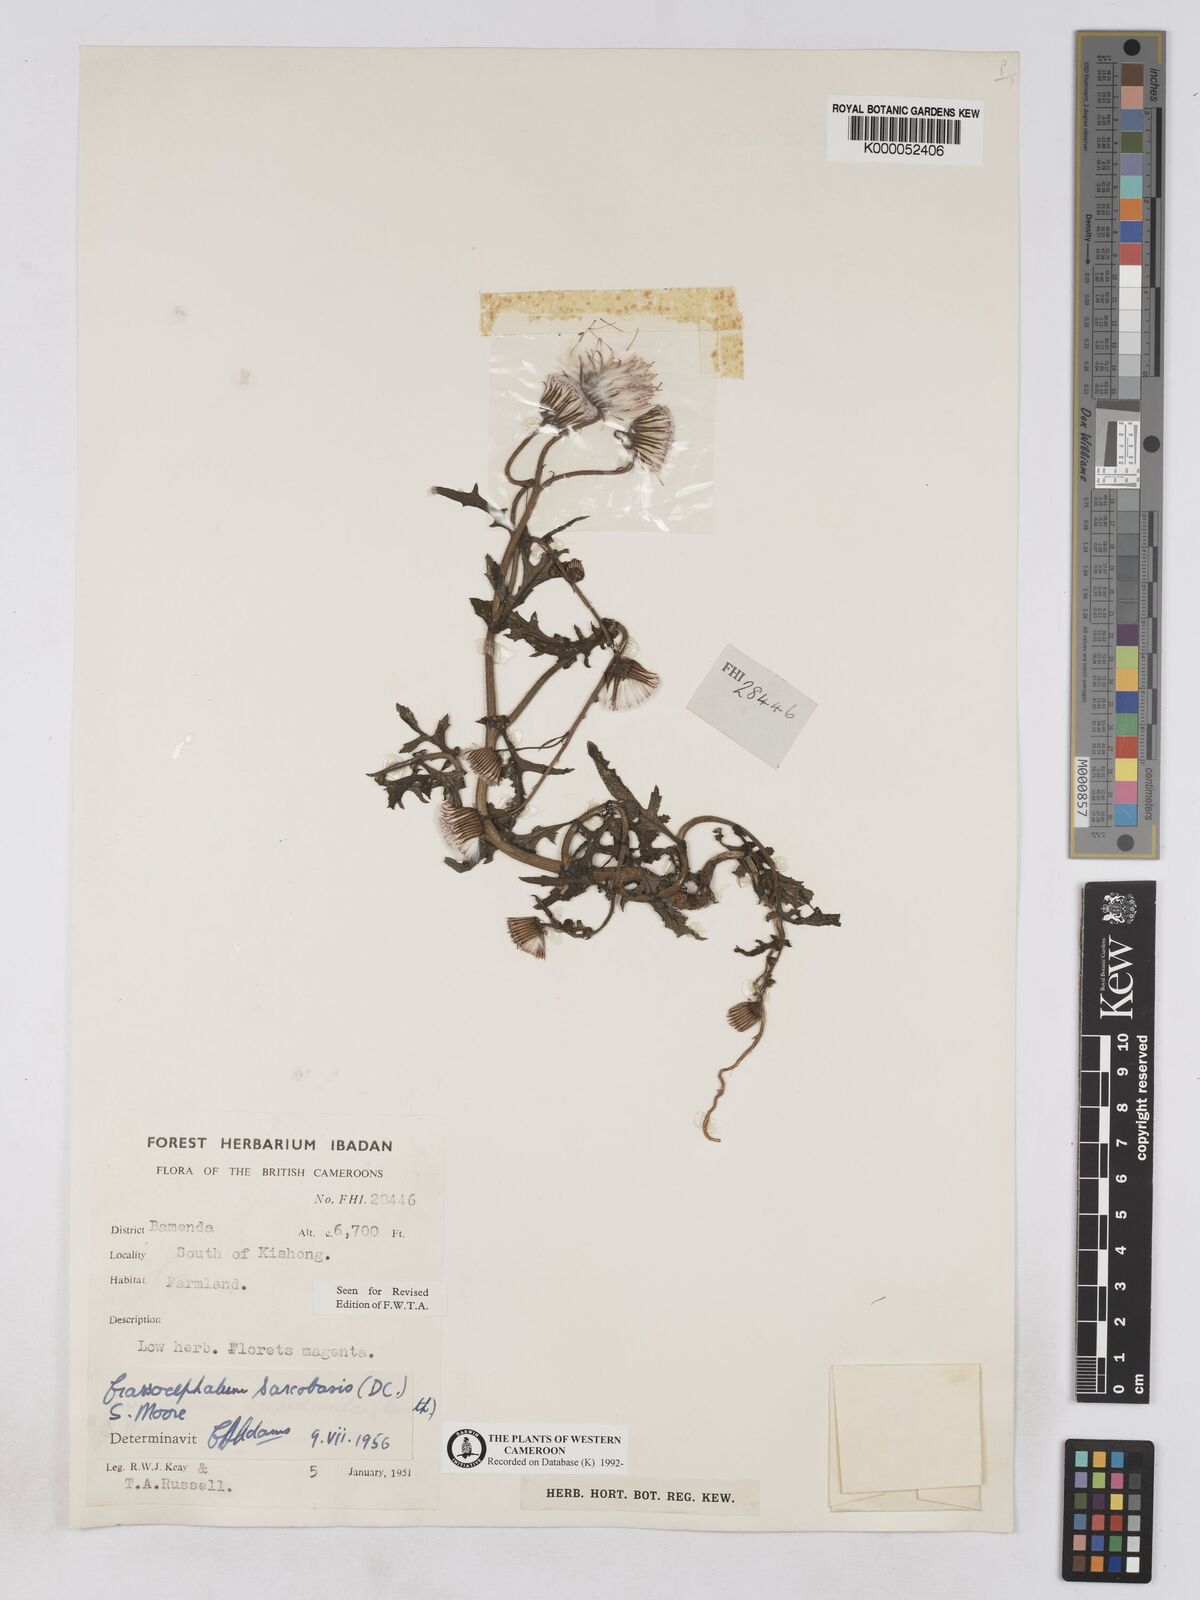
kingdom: Plantae
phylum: Tracheophyta
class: Magnoliopsida
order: Asterales
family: Asteraceae
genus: Crassocephalum
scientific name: Crassocephalum rubens
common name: Yoruban bologi
